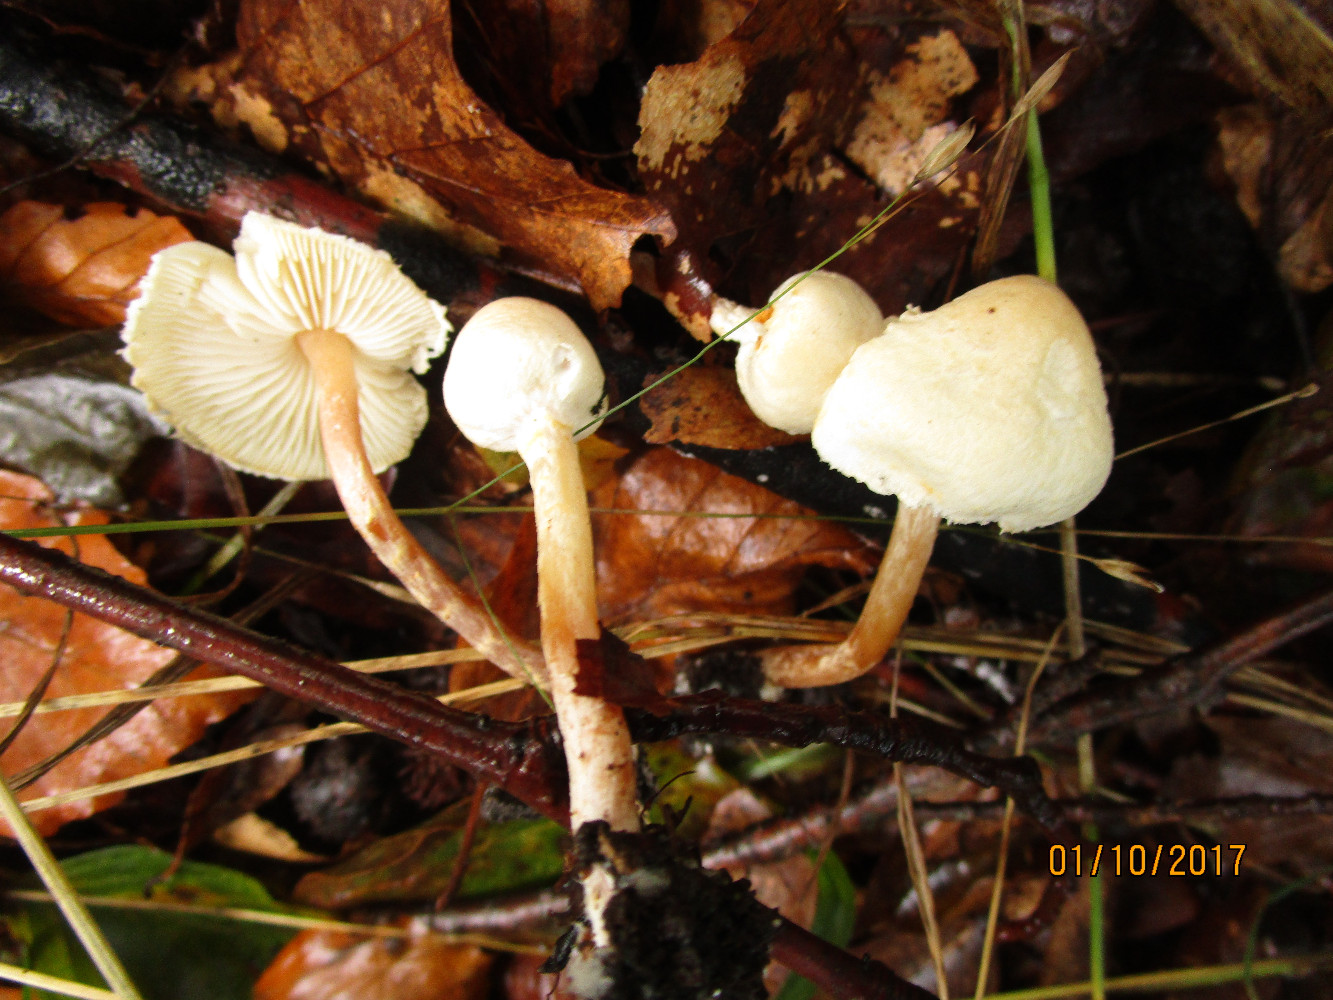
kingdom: Fungi
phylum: Basidiomycota
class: Agaricomycetes
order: Agaricales
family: Agaricaceae
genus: Cystolepiota
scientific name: Cystolepiota seminuda
